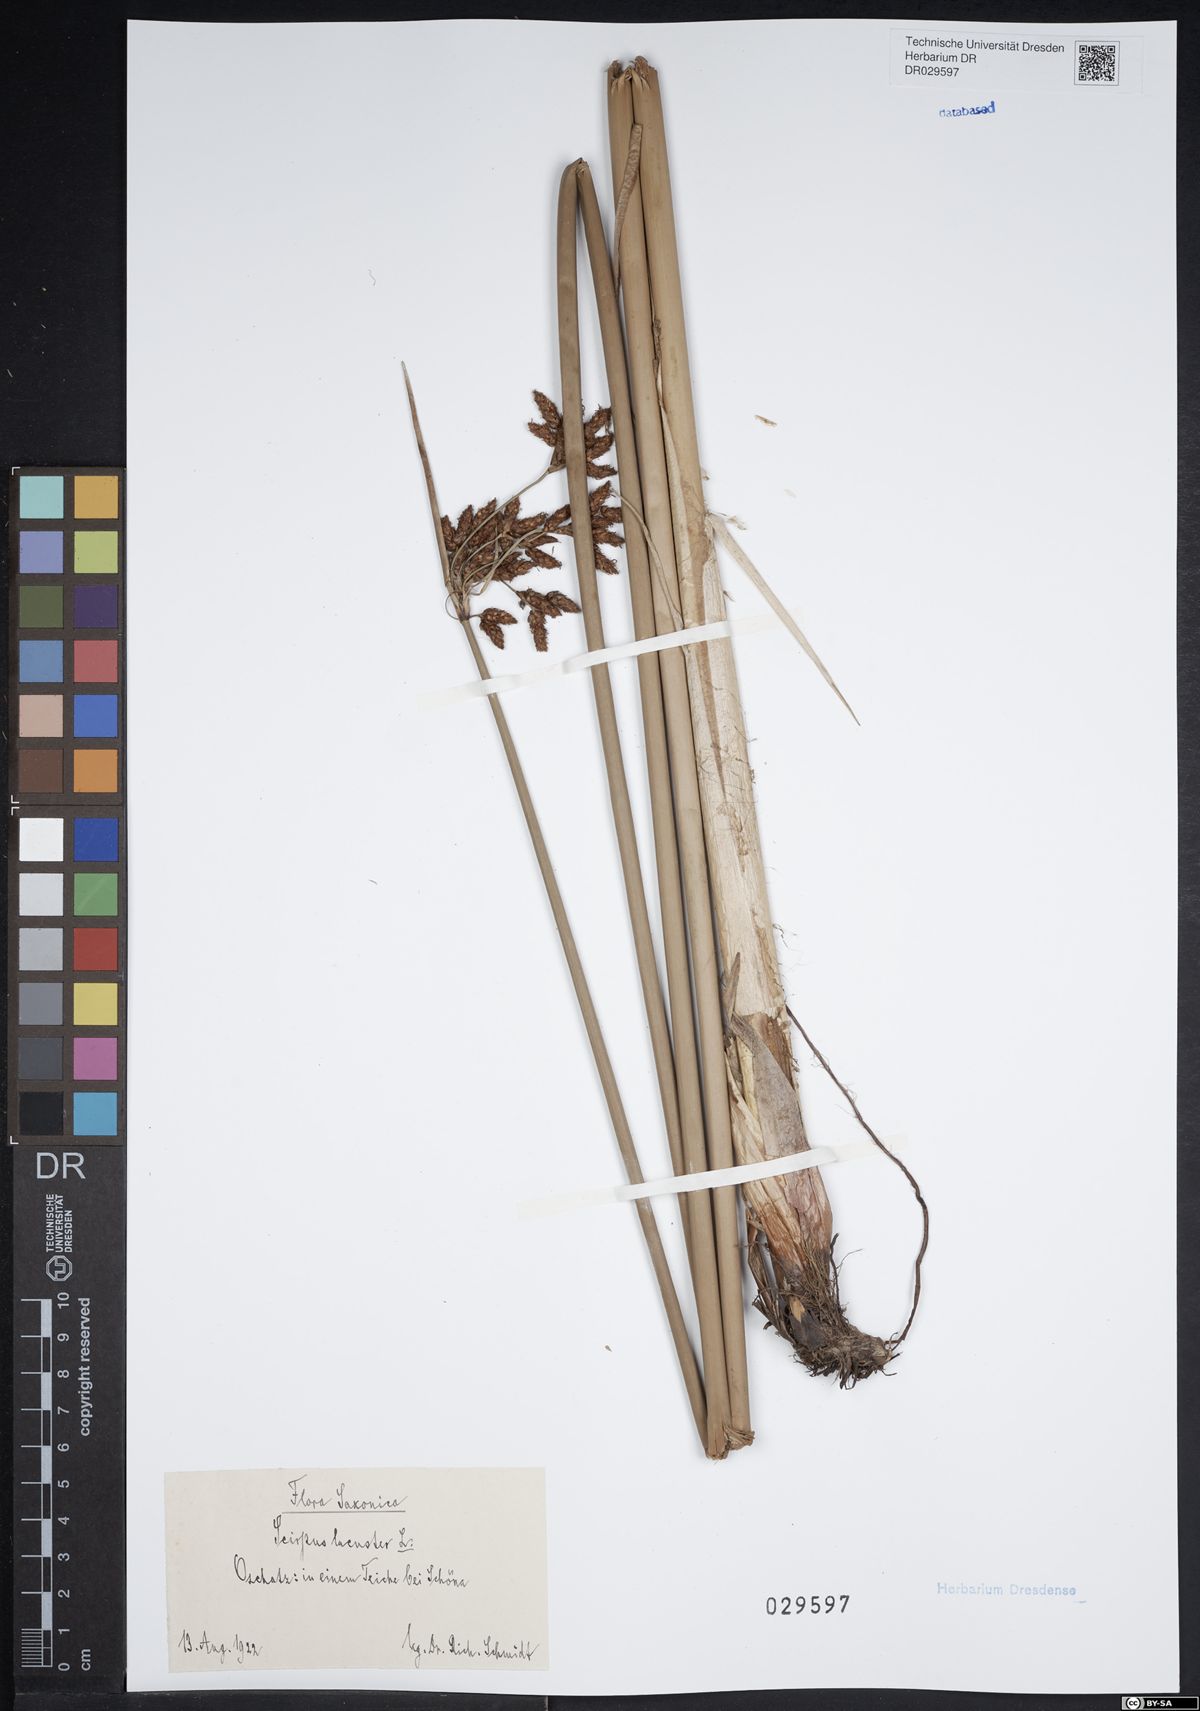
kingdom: Plantae
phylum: Tracheophyta
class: Liliopsida
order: Poales
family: Cyperaceae
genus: Schoenoplectus
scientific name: Schoenoplectus lacustris
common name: Common club-rush
